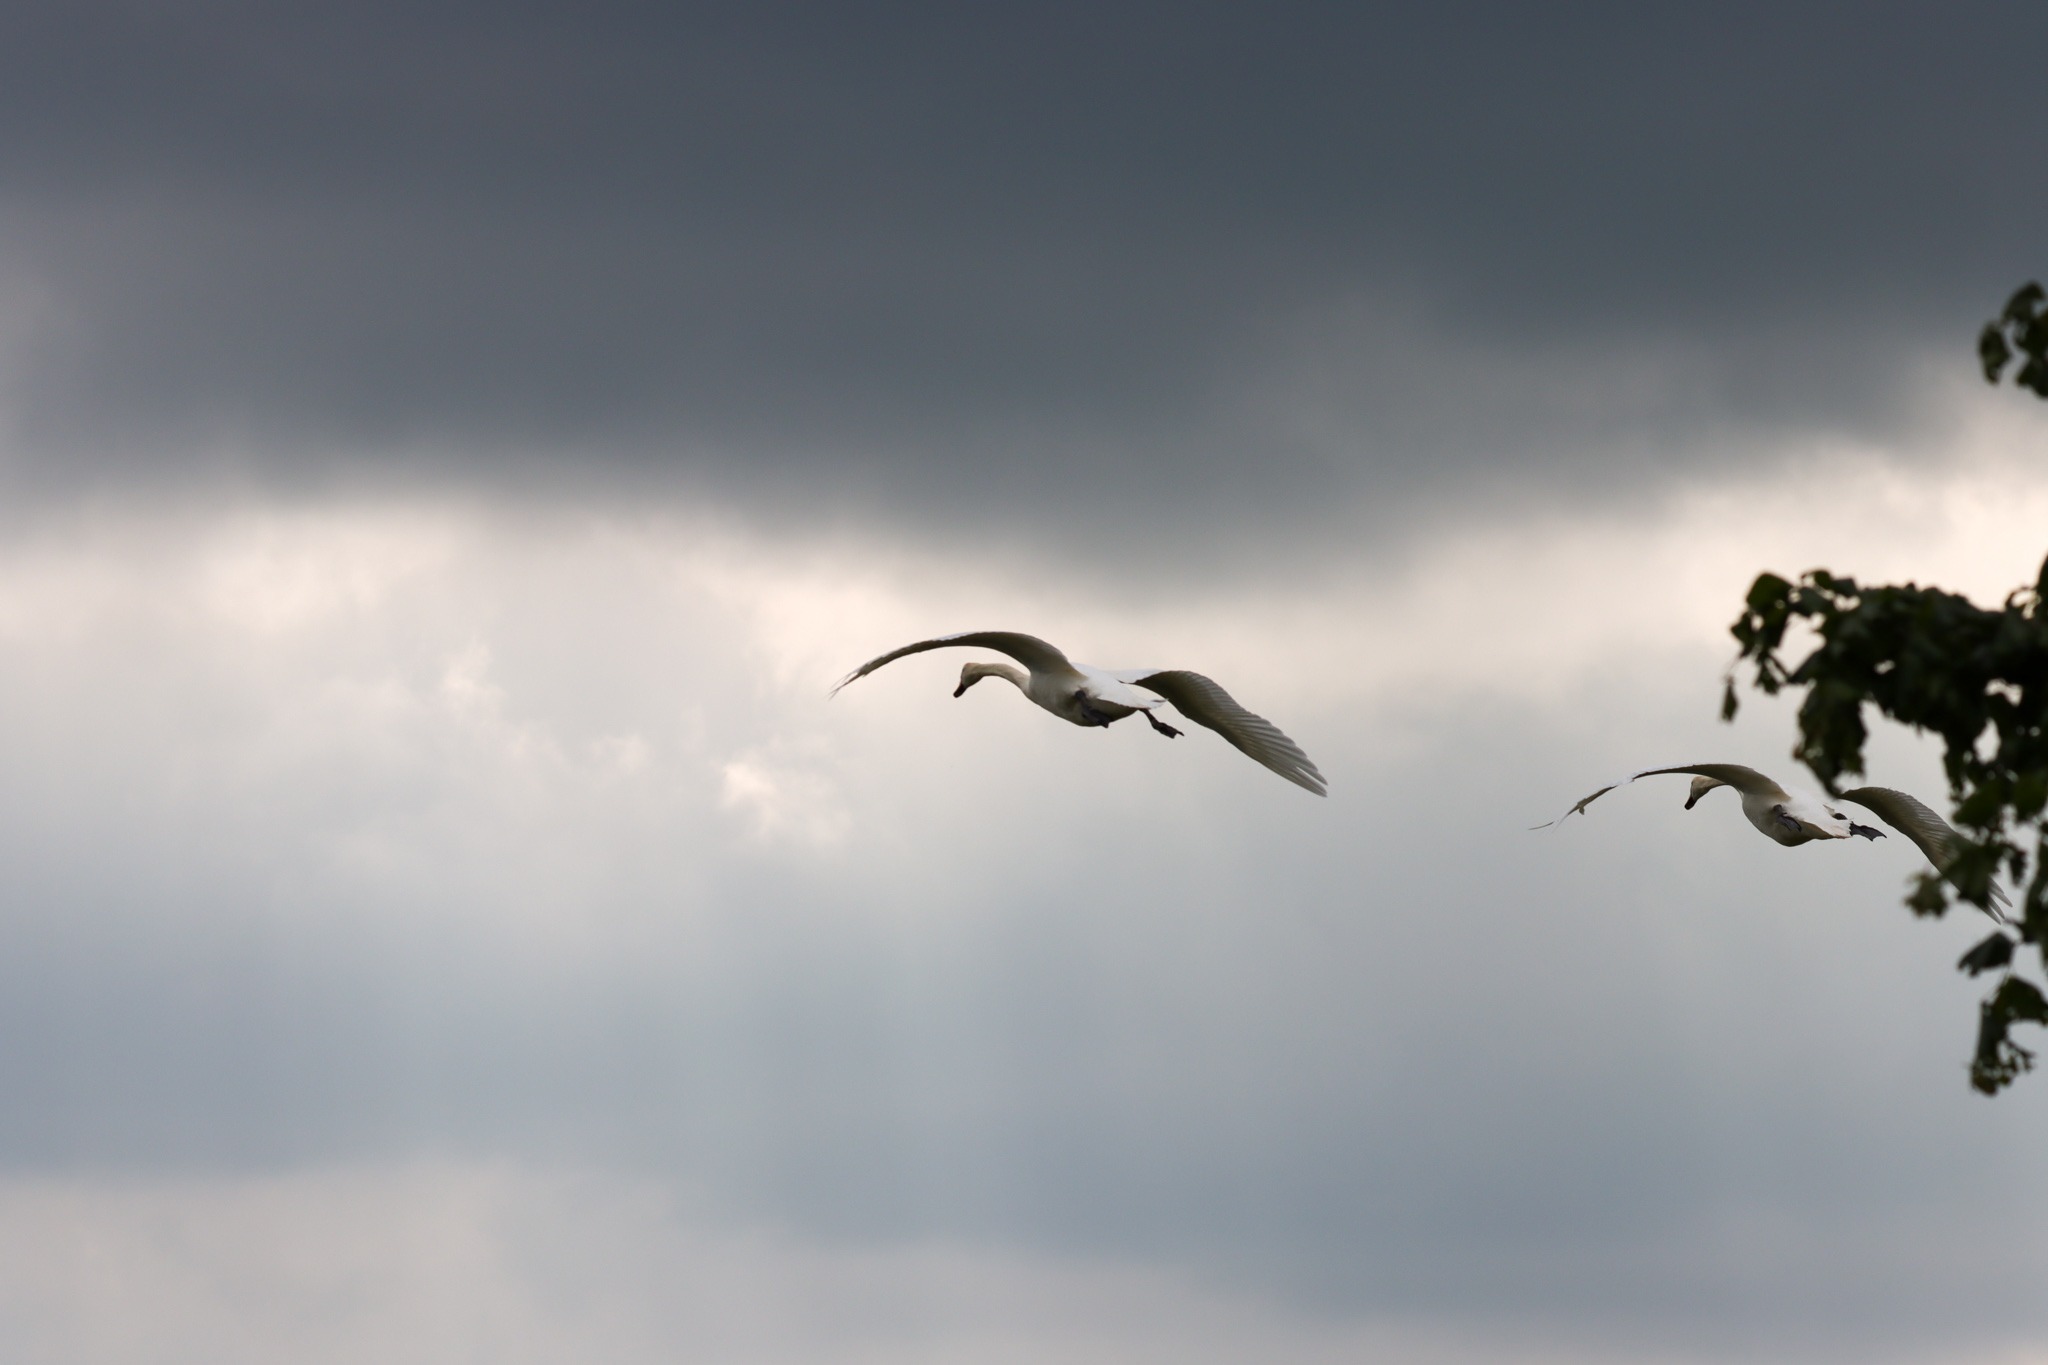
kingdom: Animalia
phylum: Chordata
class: Aves
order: Anseriformes
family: Anatidae
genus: Cygnus
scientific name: Cygnus olor
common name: Knopsvane
